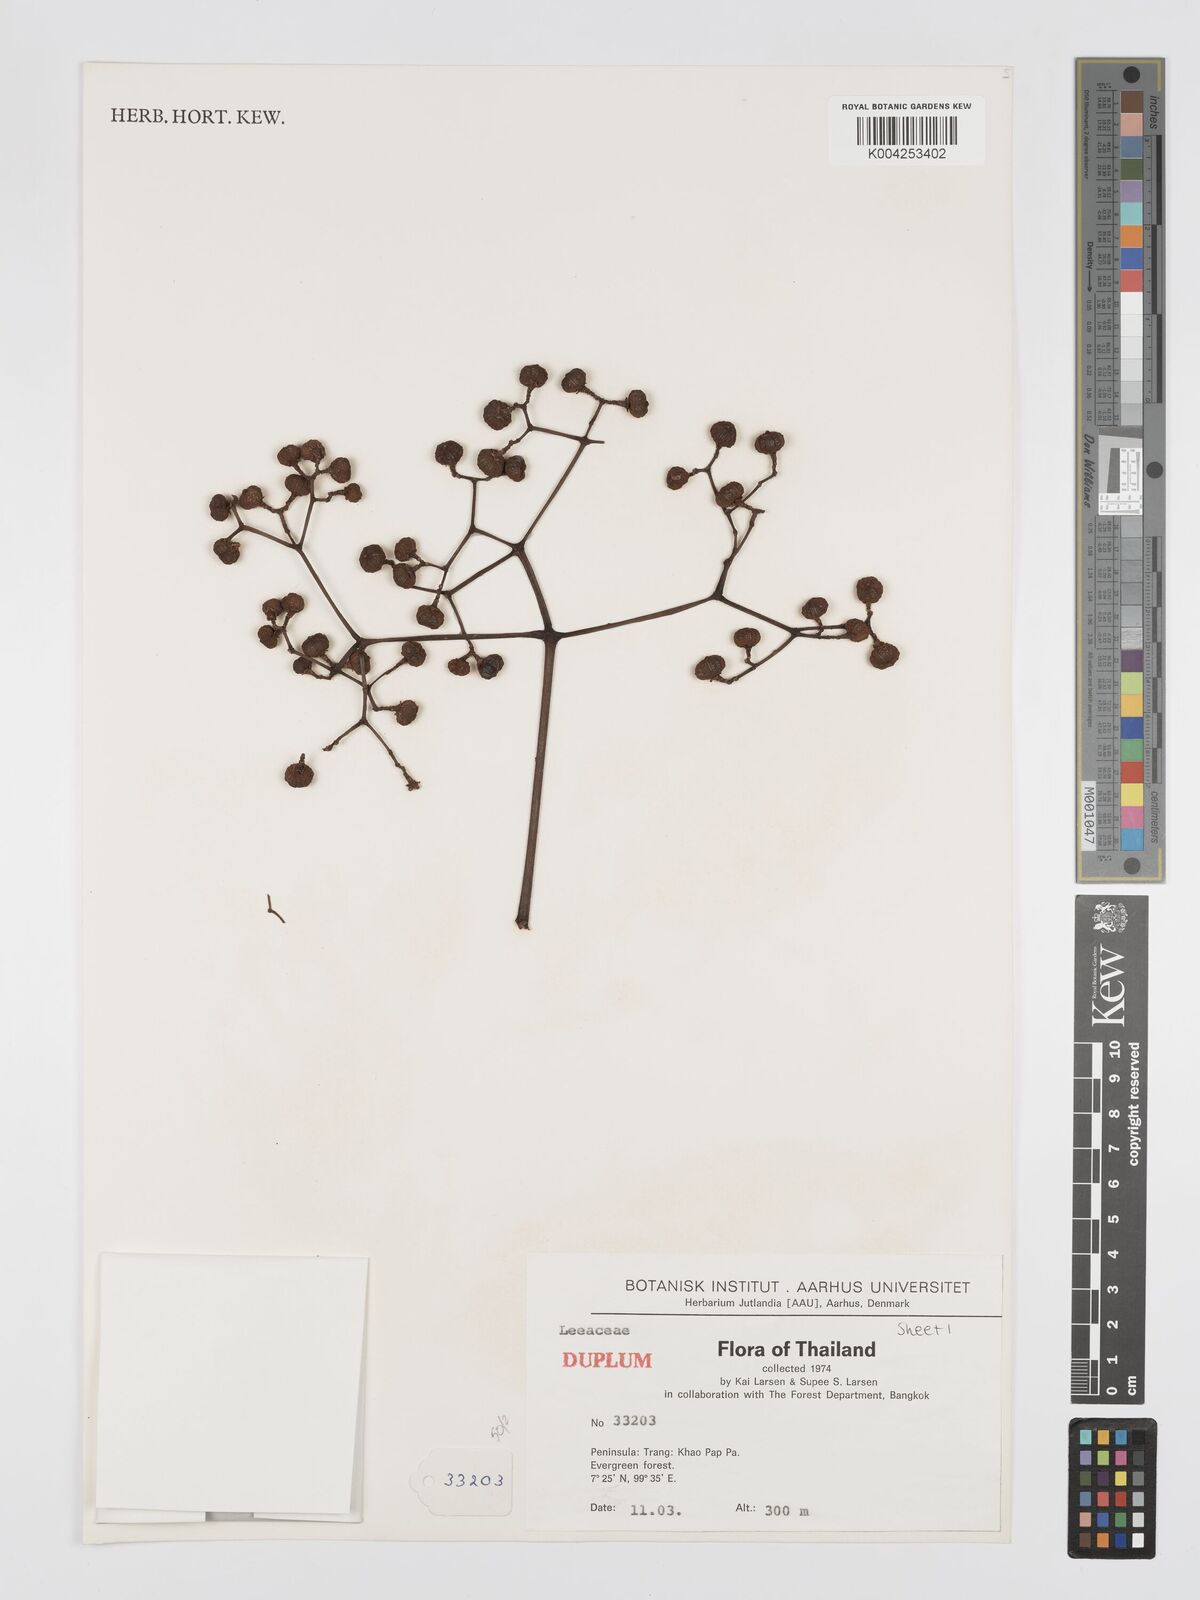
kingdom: Plantae
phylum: Tracheophyta
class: Magnoliopsida
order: Vitales
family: Vitaceae
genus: Leea
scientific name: Leea
